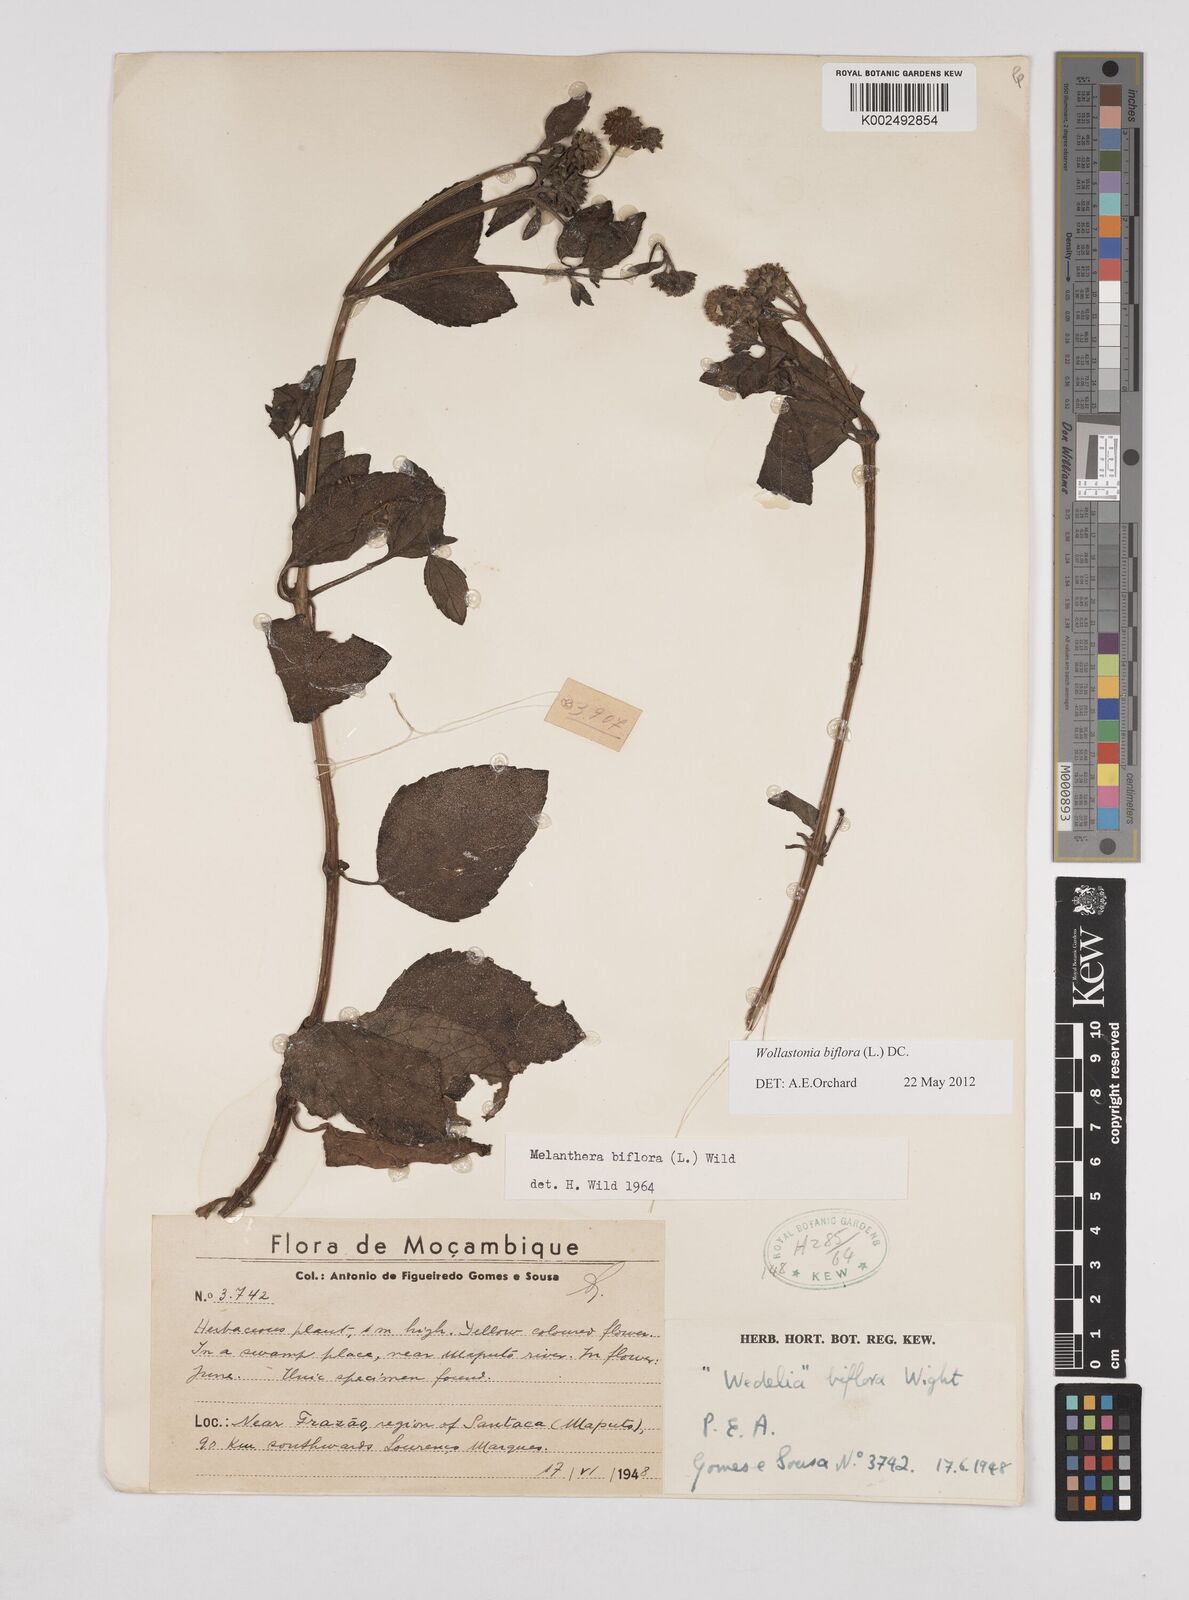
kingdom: Plantae
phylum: Tracheophyta
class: Magnoliopsida
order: Asterales
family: Asteraceae
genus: Wollastonia
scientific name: Wollastonia biflora
